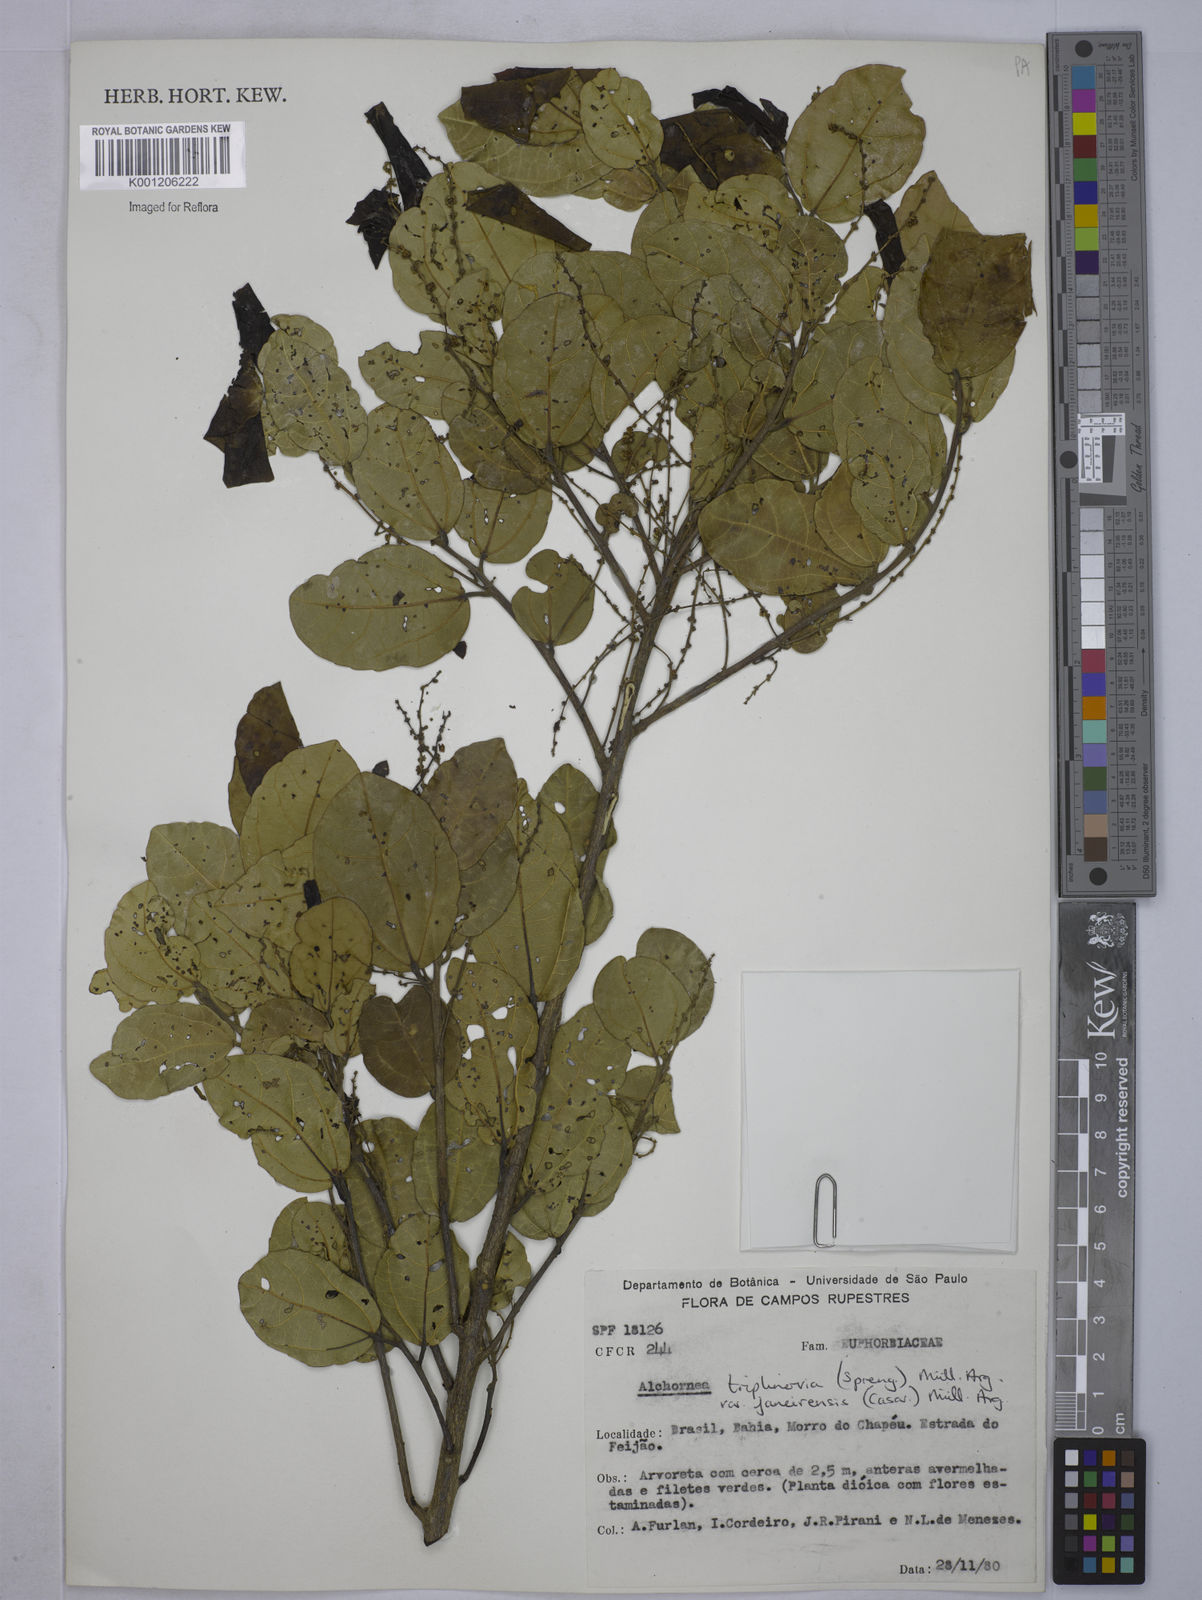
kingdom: Plantae
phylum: Tracheophyta
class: Magnoliopsida
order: Malpighiales
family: Euphorbiaceae
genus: Alchornea
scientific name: Alchornea
